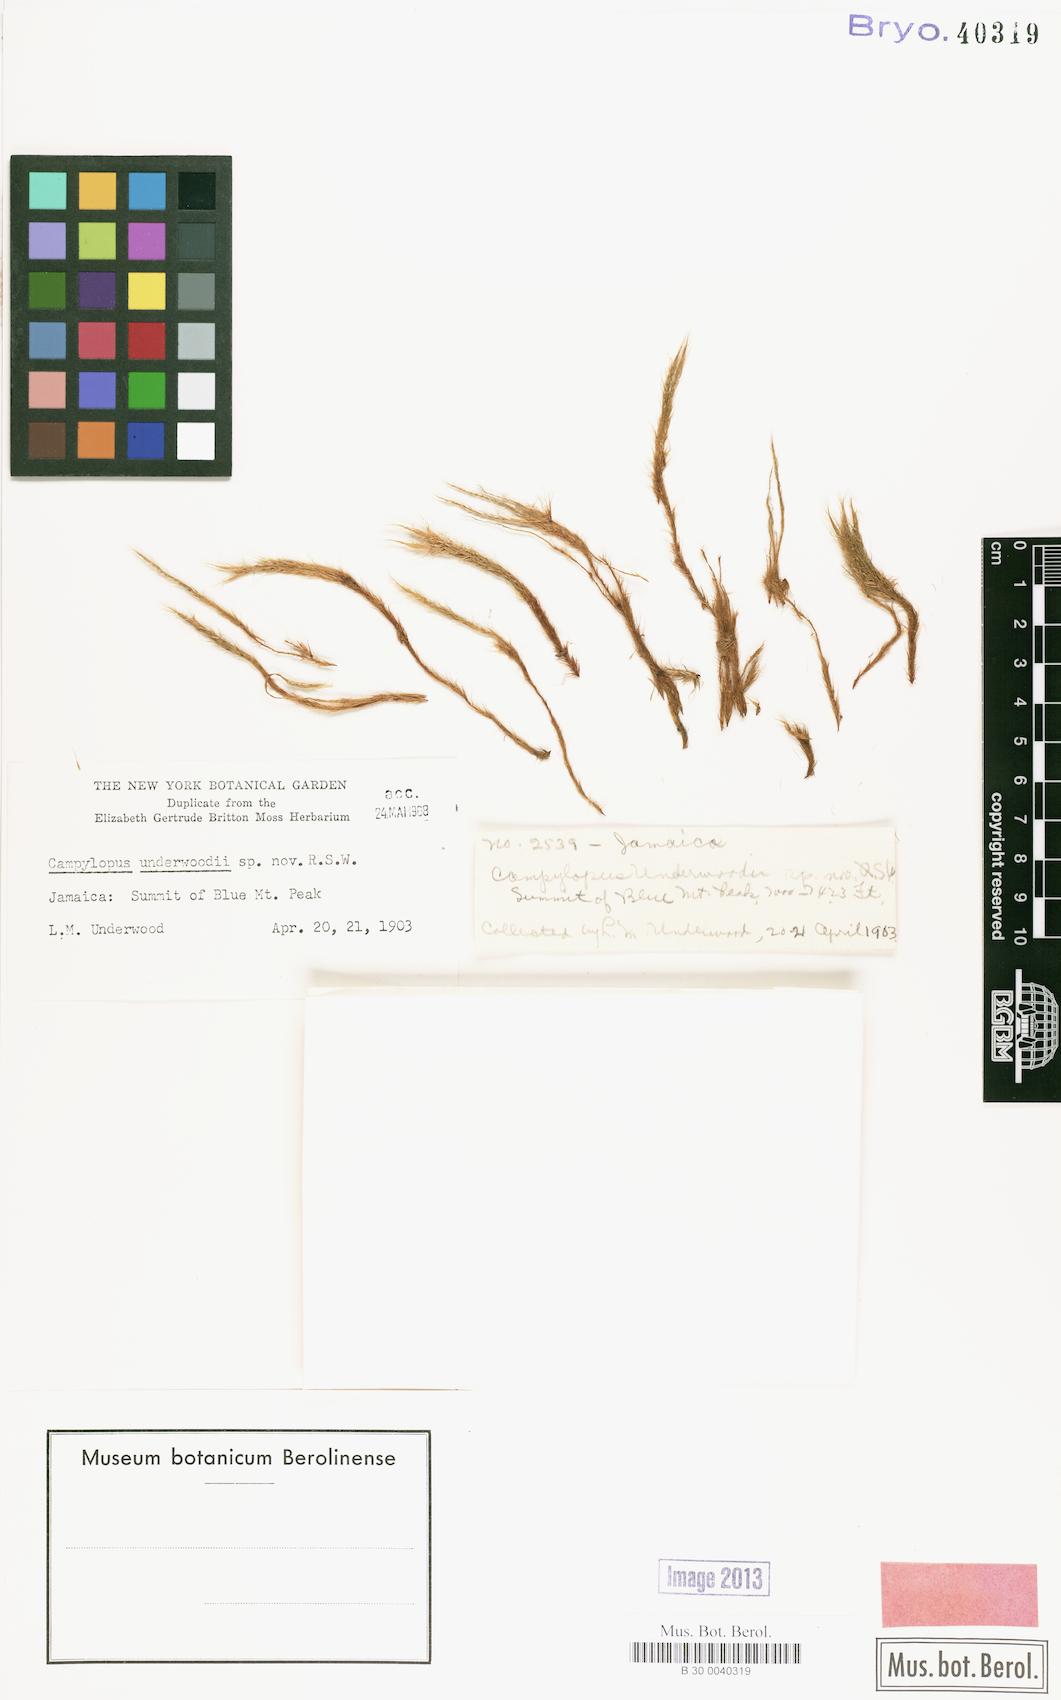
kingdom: Plantae
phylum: Bryophyta
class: Bryopsida
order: Dicranales
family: Leucobryaceae
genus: Campylopus
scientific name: Campylopus shawii
